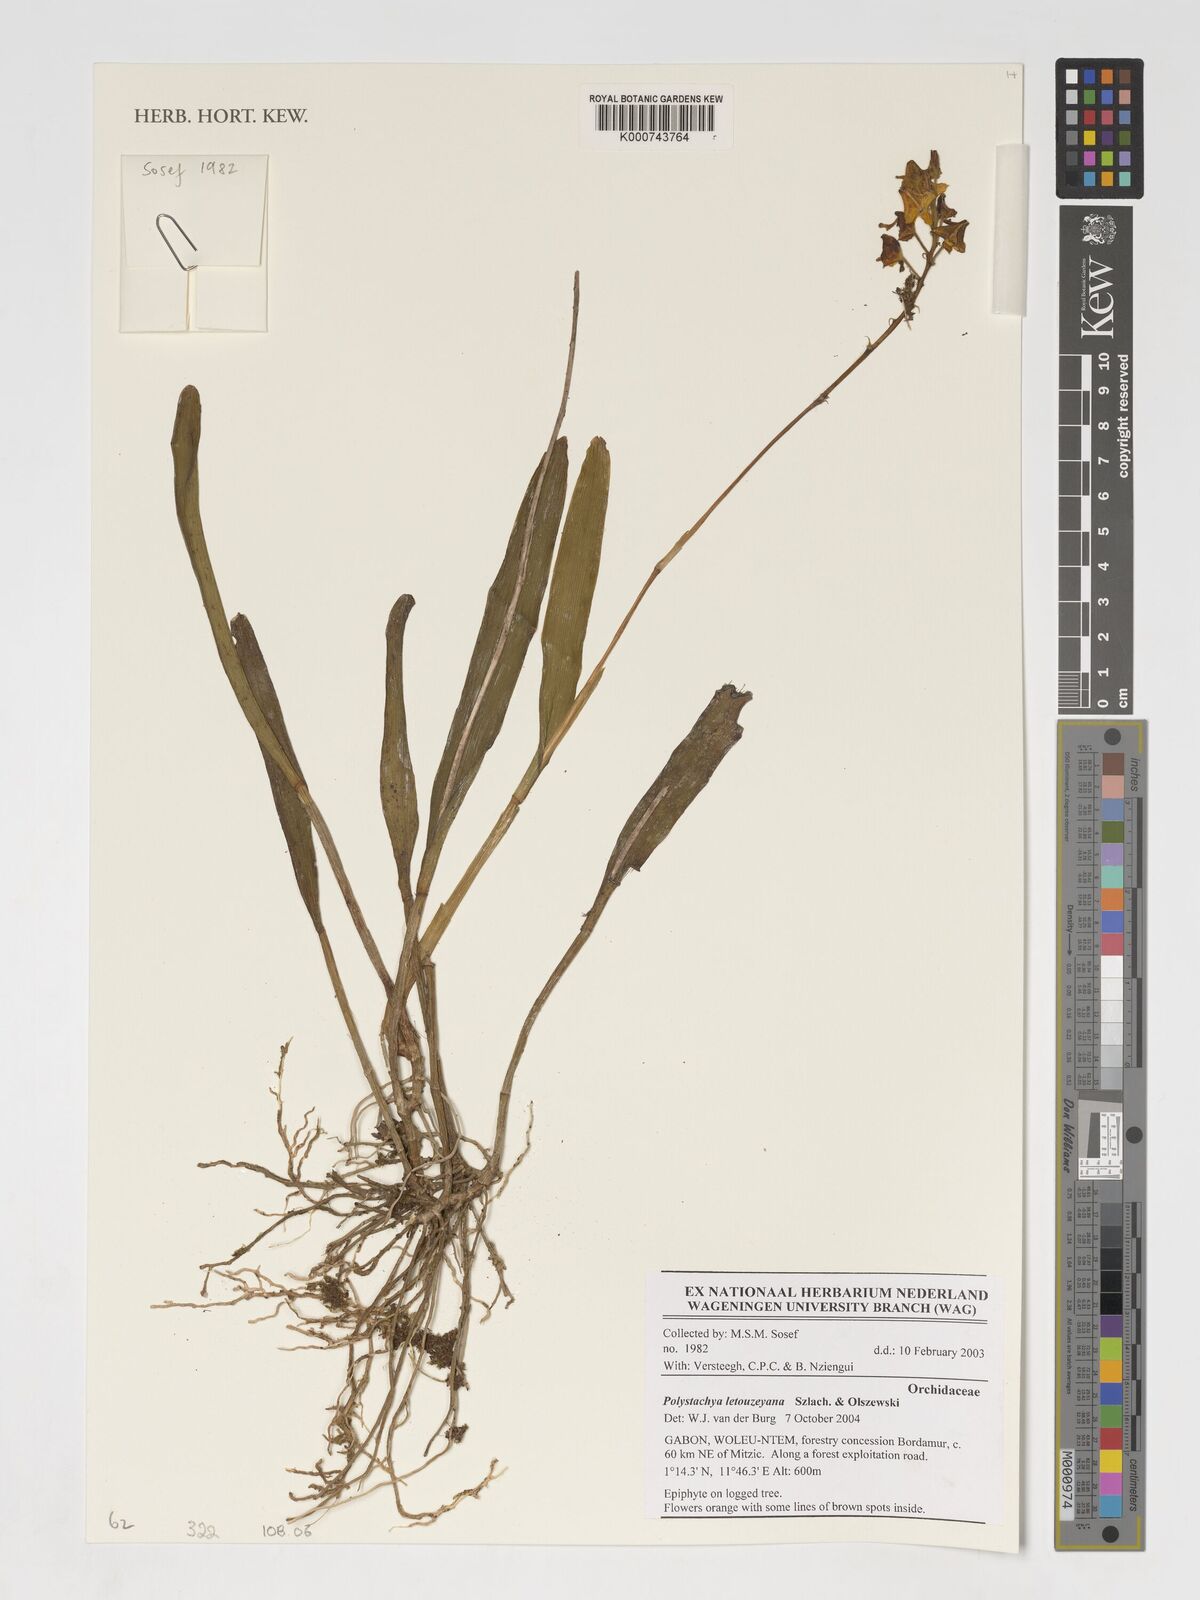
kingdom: Plantae
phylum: Tracheophyta
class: Liliopsida
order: Asparagales
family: Orchidaceae
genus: Polystachya
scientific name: Polystachya letouzeyana
